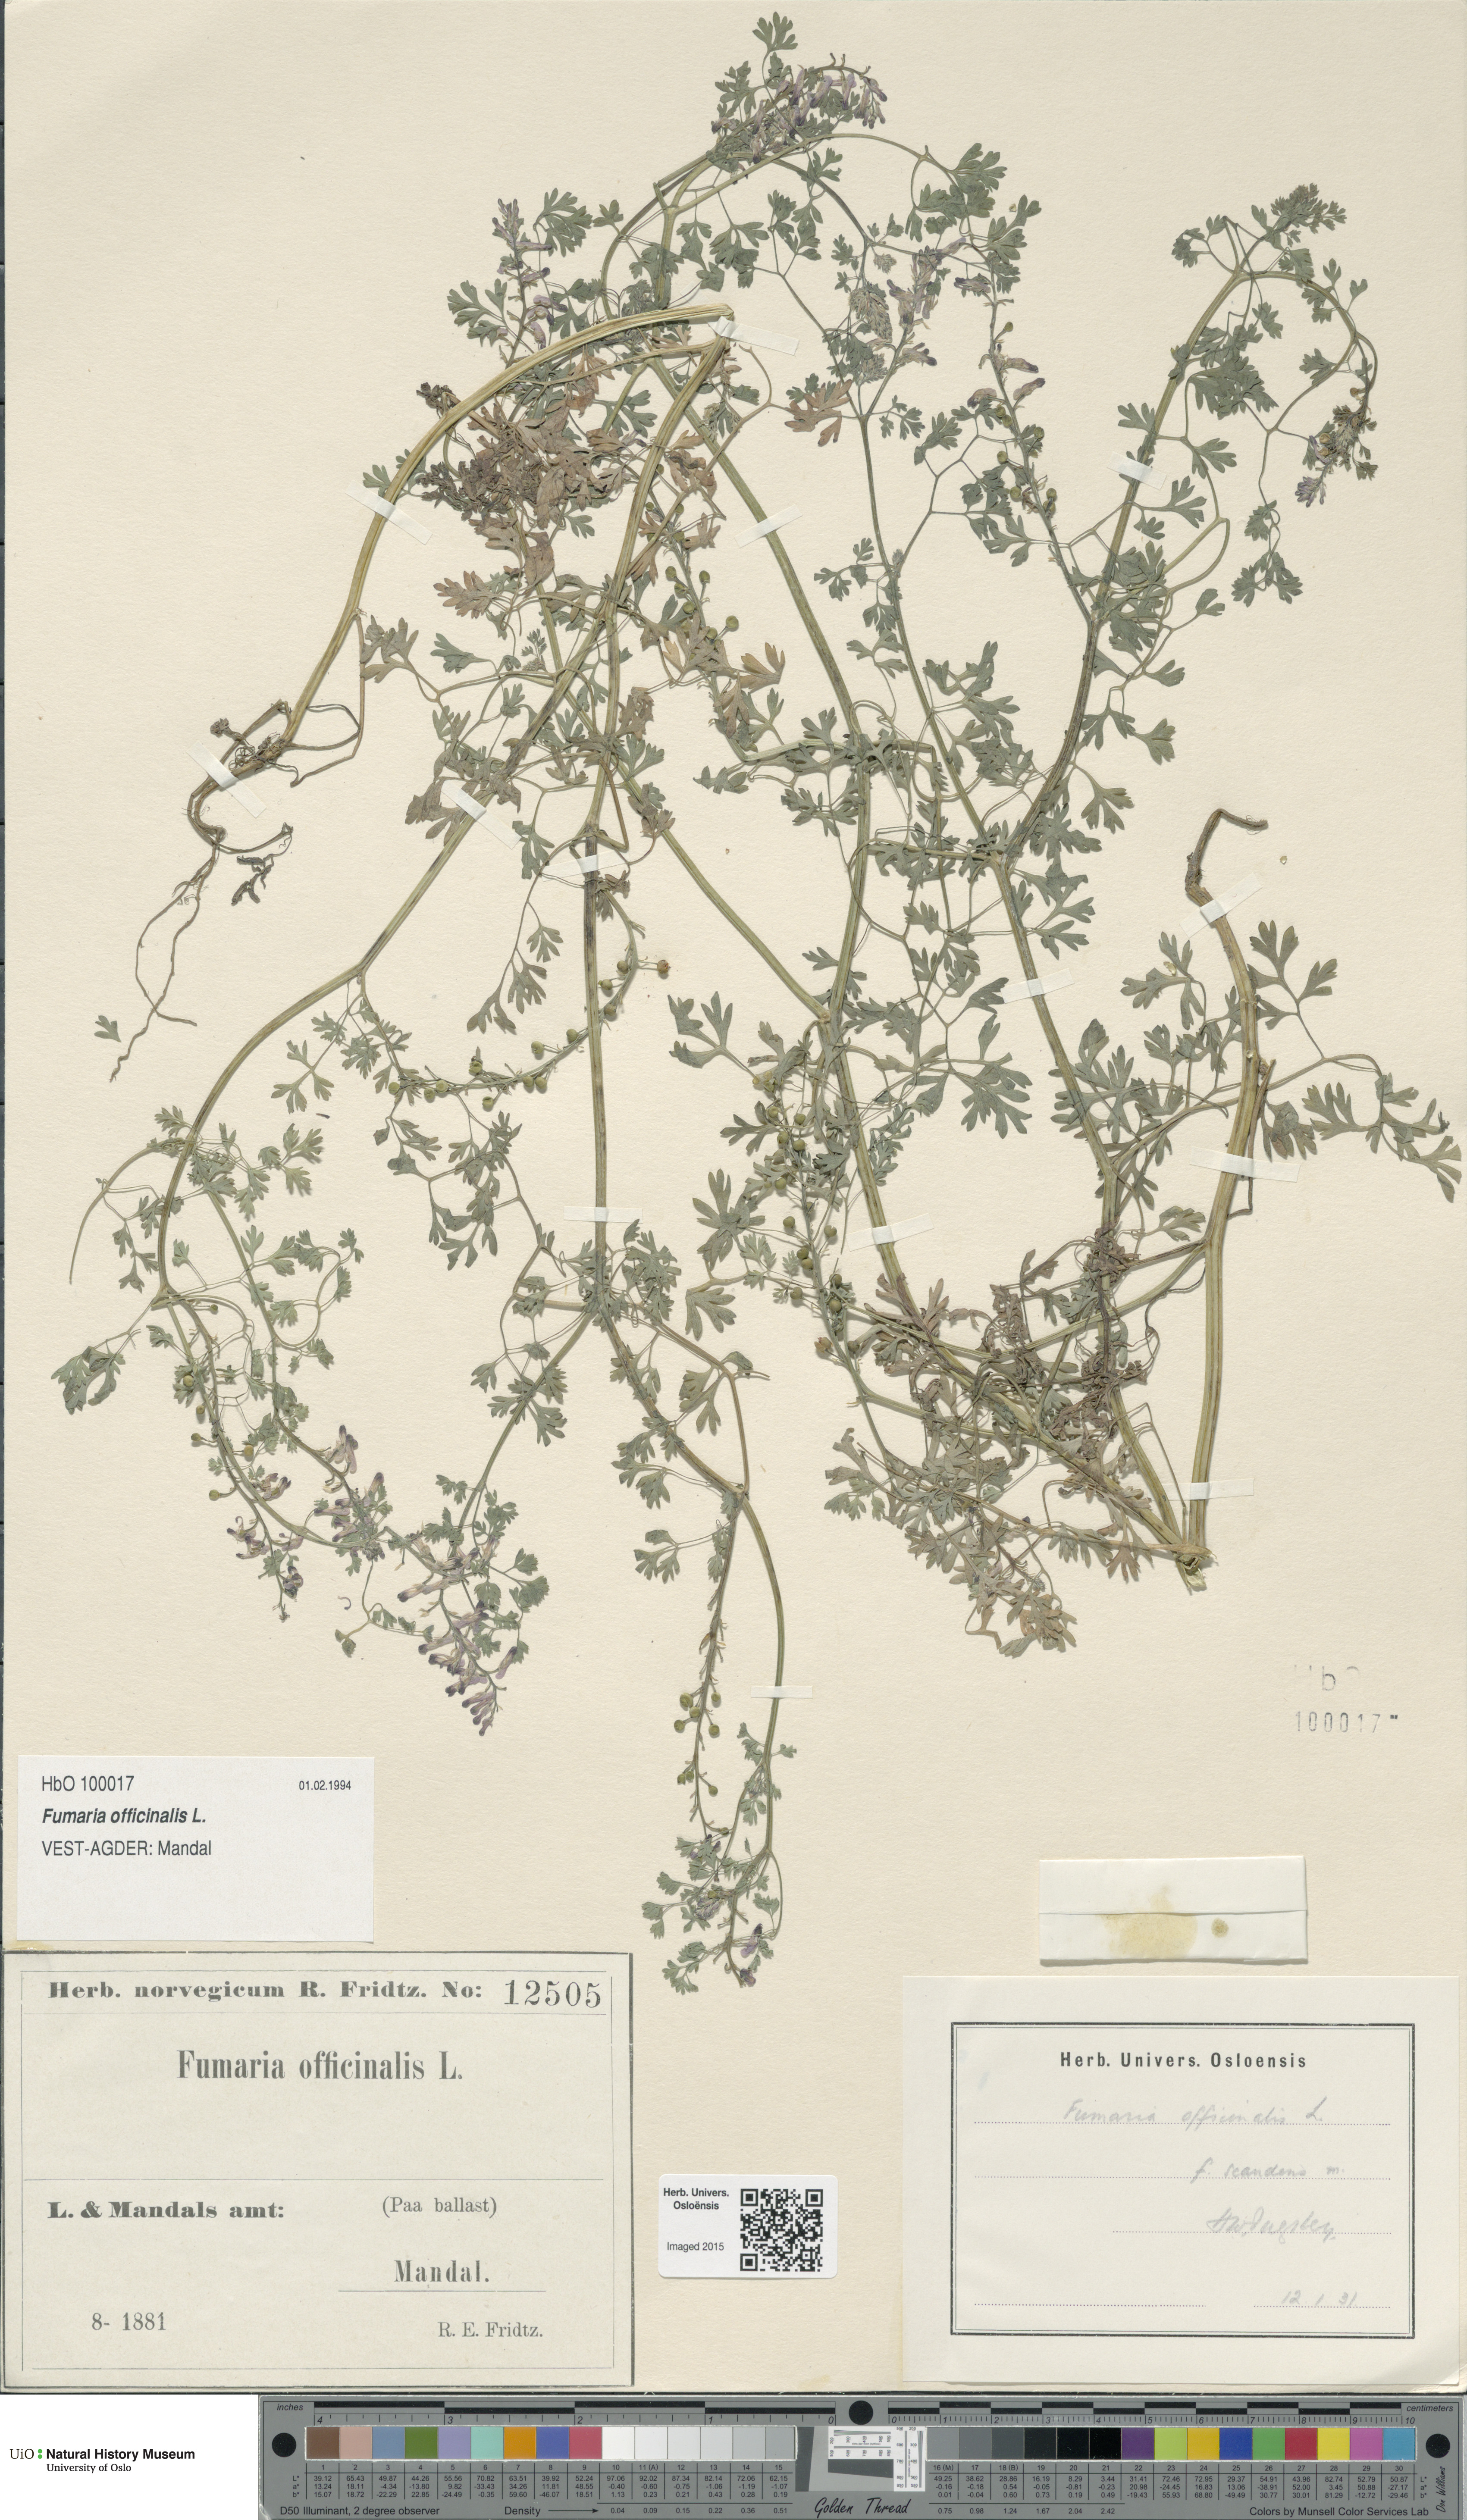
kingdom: Plantae
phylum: Tracheophyta
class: Magnoliopsida
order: Ranunculales
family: Papaveraceae
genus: Fumaria
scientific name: Fumaria officinalis
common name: Common fumitory
